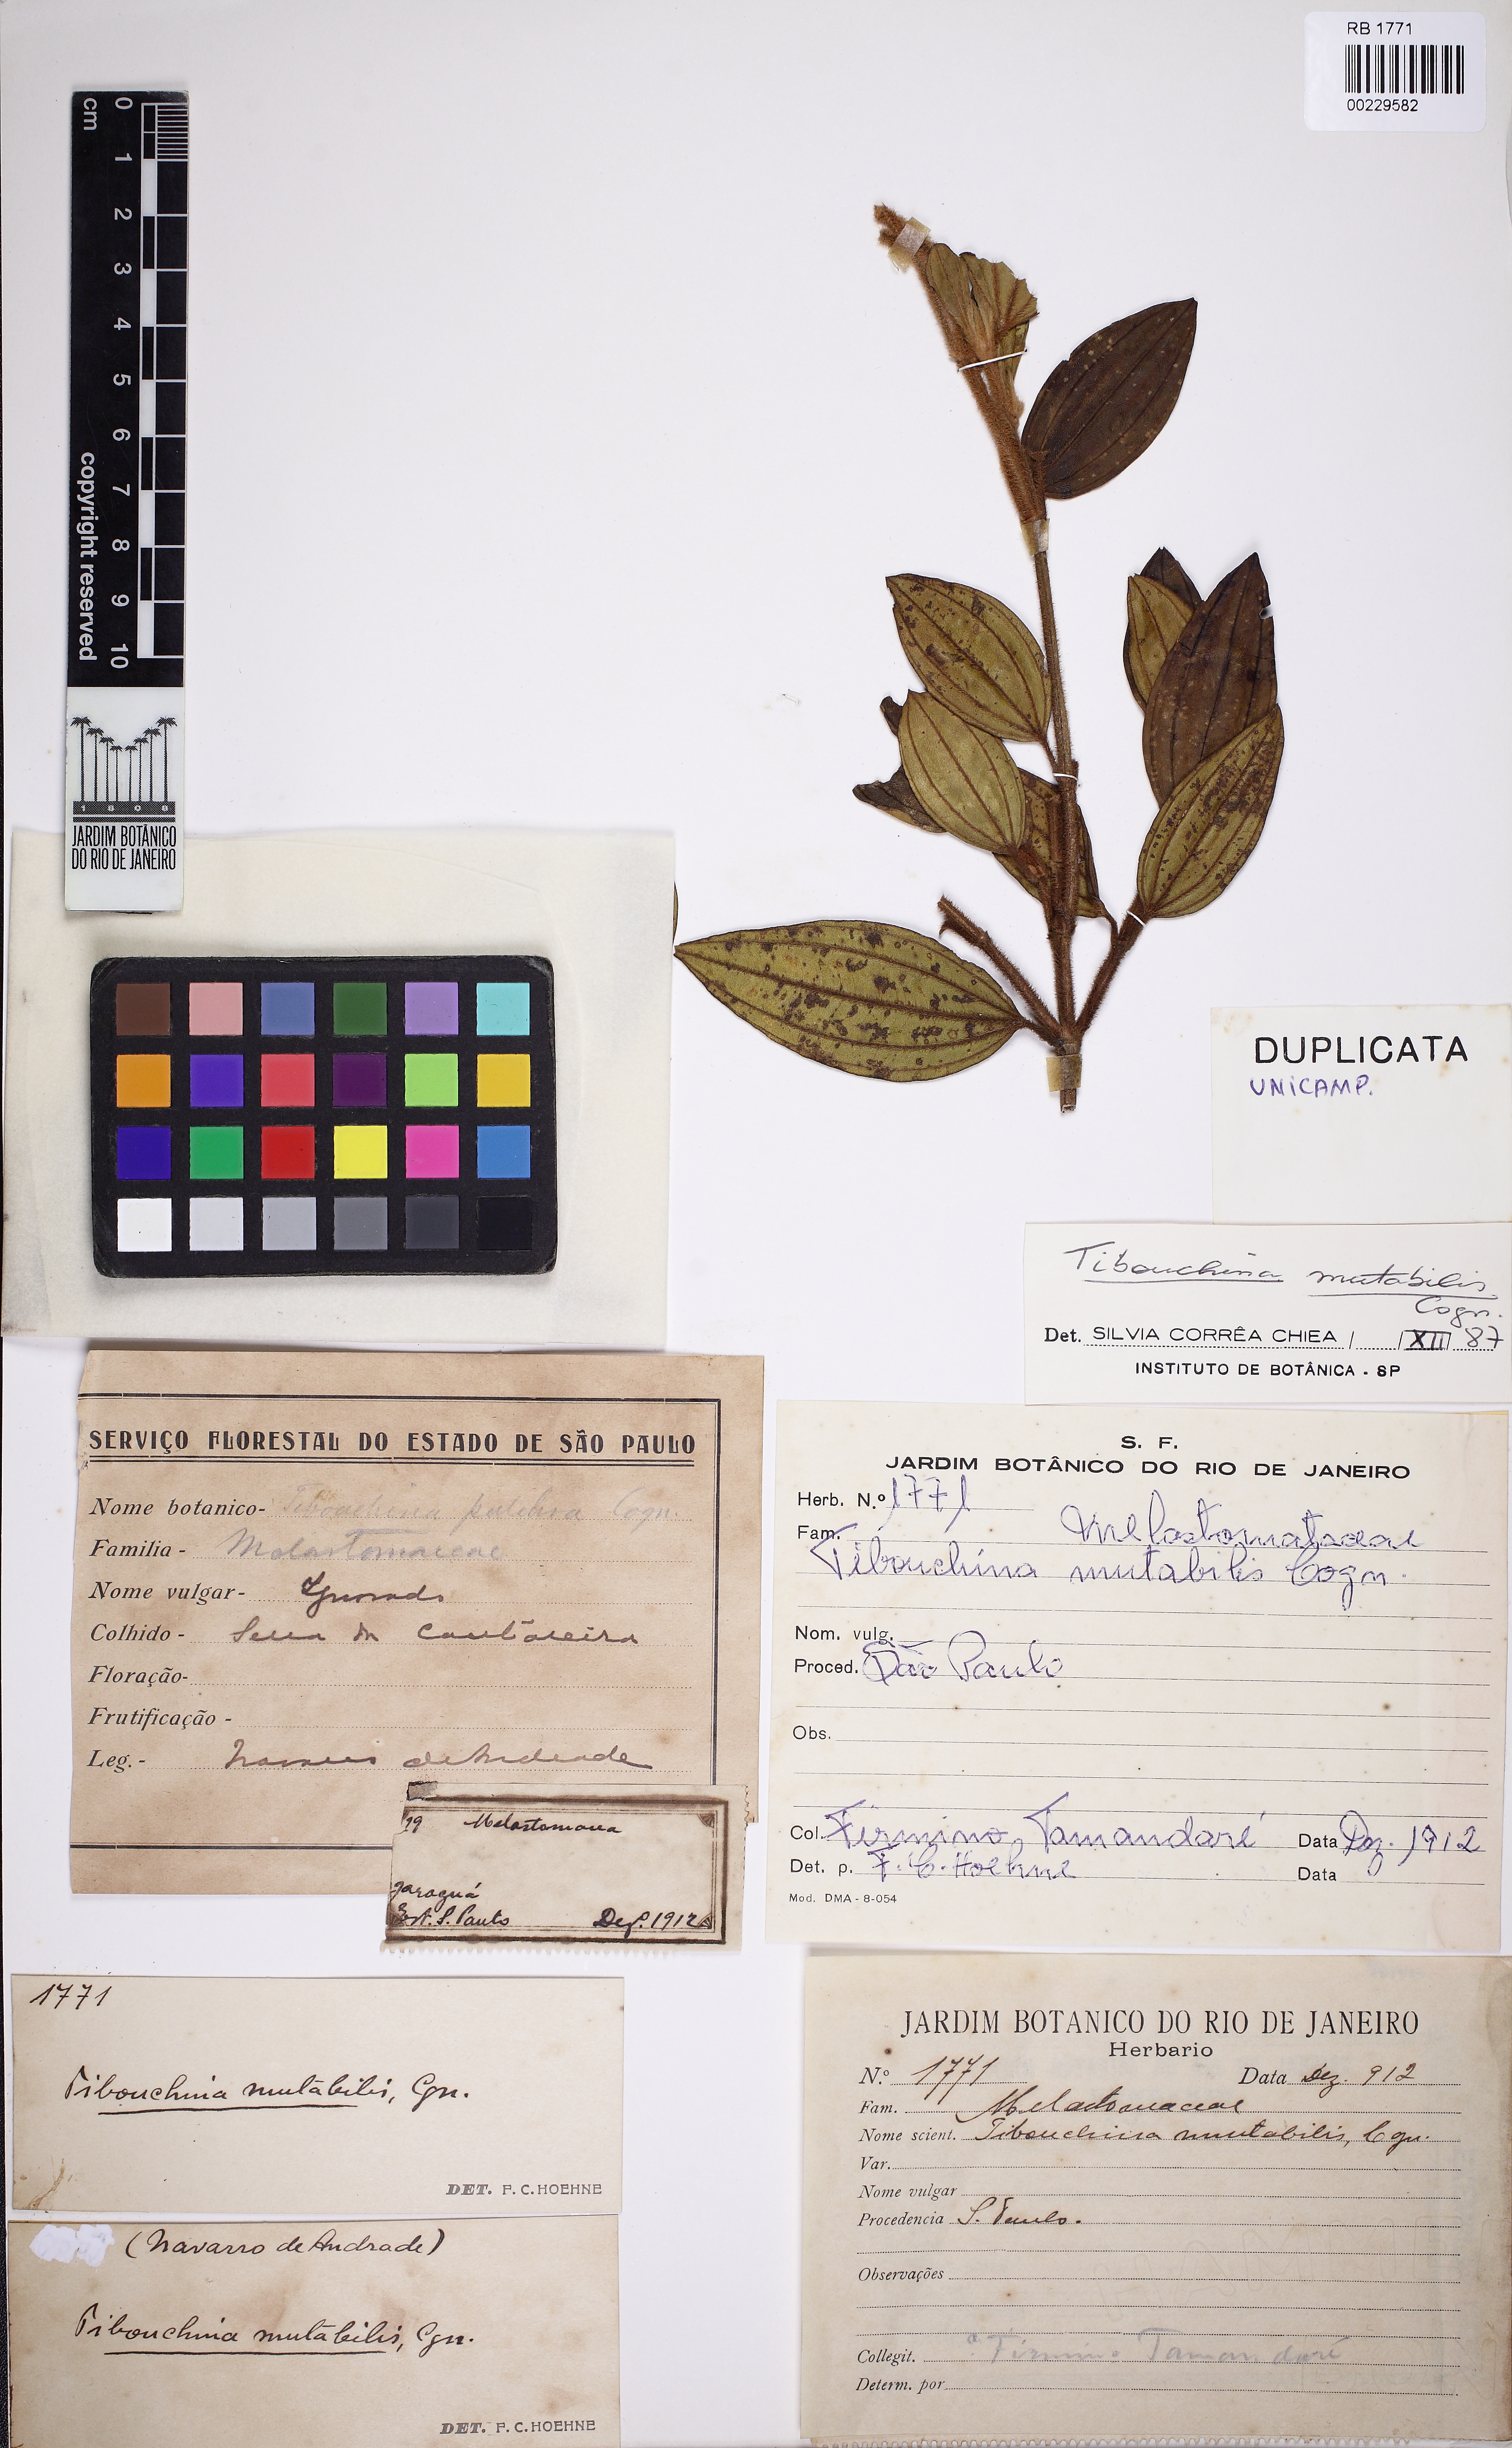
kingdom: Plantae
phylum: Tracheophyta
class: Magnoliopsida
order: Myrtales
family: Melastomataceae
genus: Pleroma
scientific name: Pleroma mosenii
